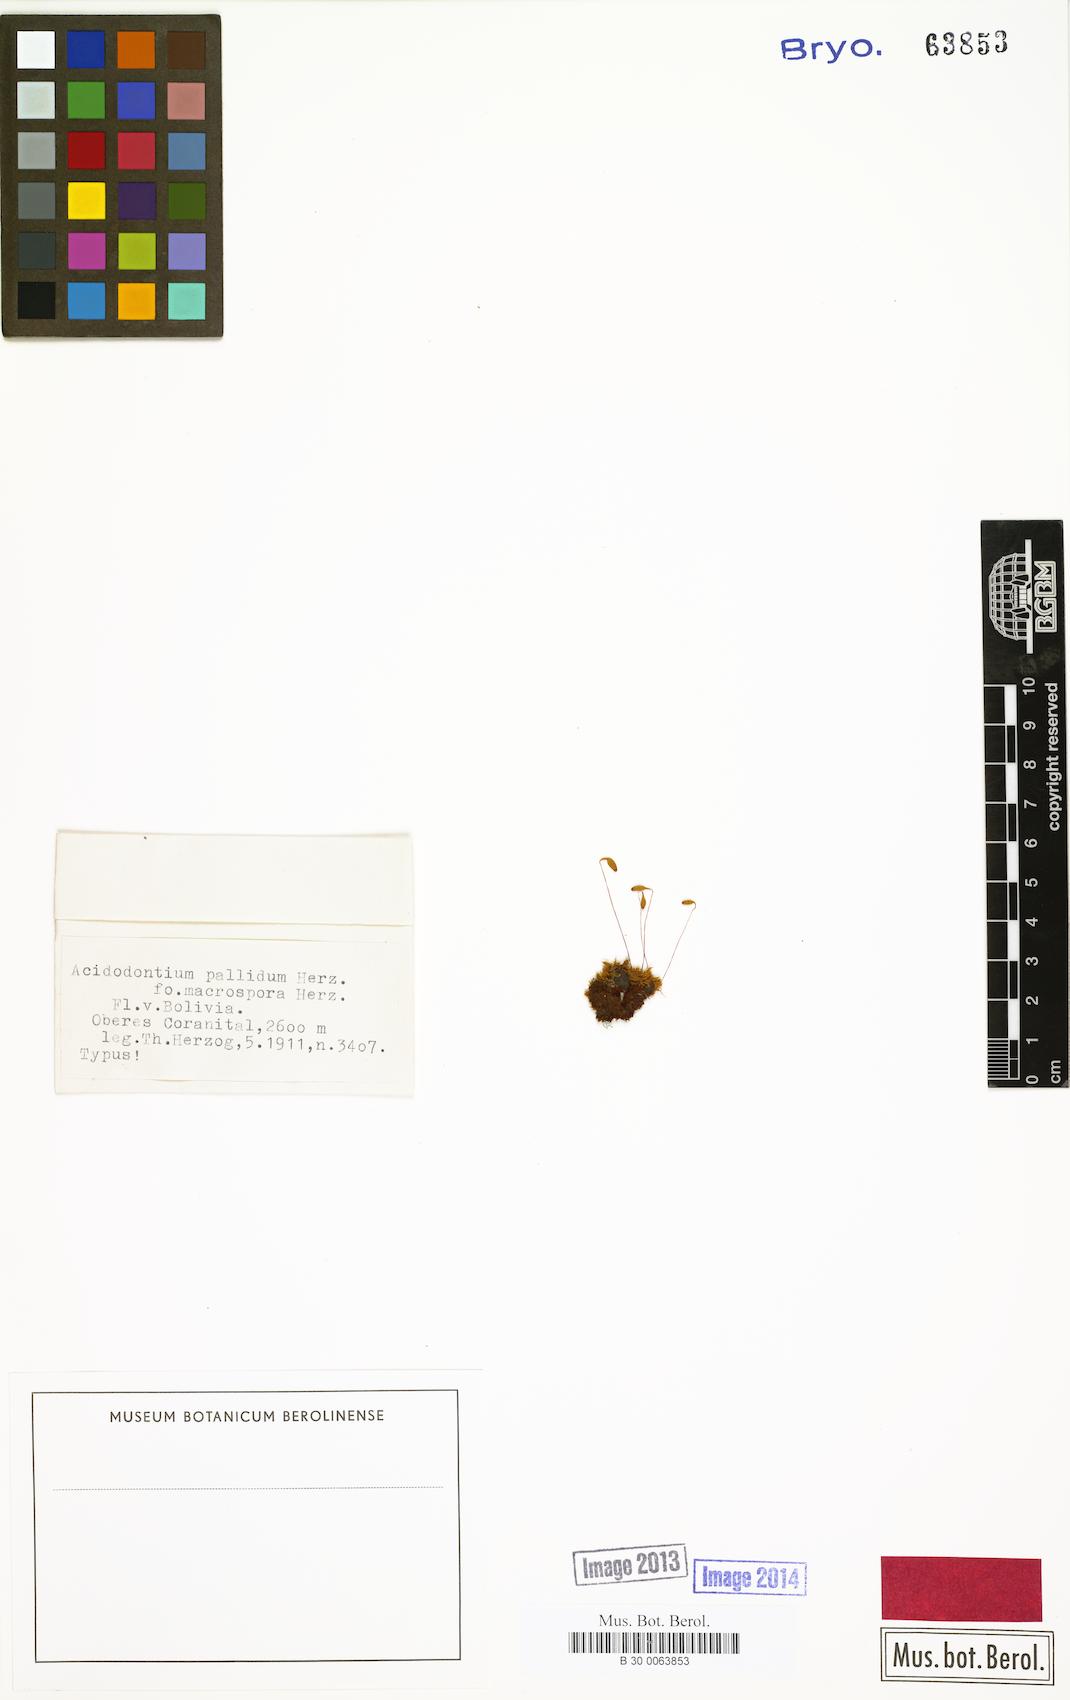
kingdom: Plantae
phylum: Bryophyta
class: Bryopsida
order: Bryales
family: Bryaceae
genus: Acidodontium
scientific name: Acidodontium pallidum
